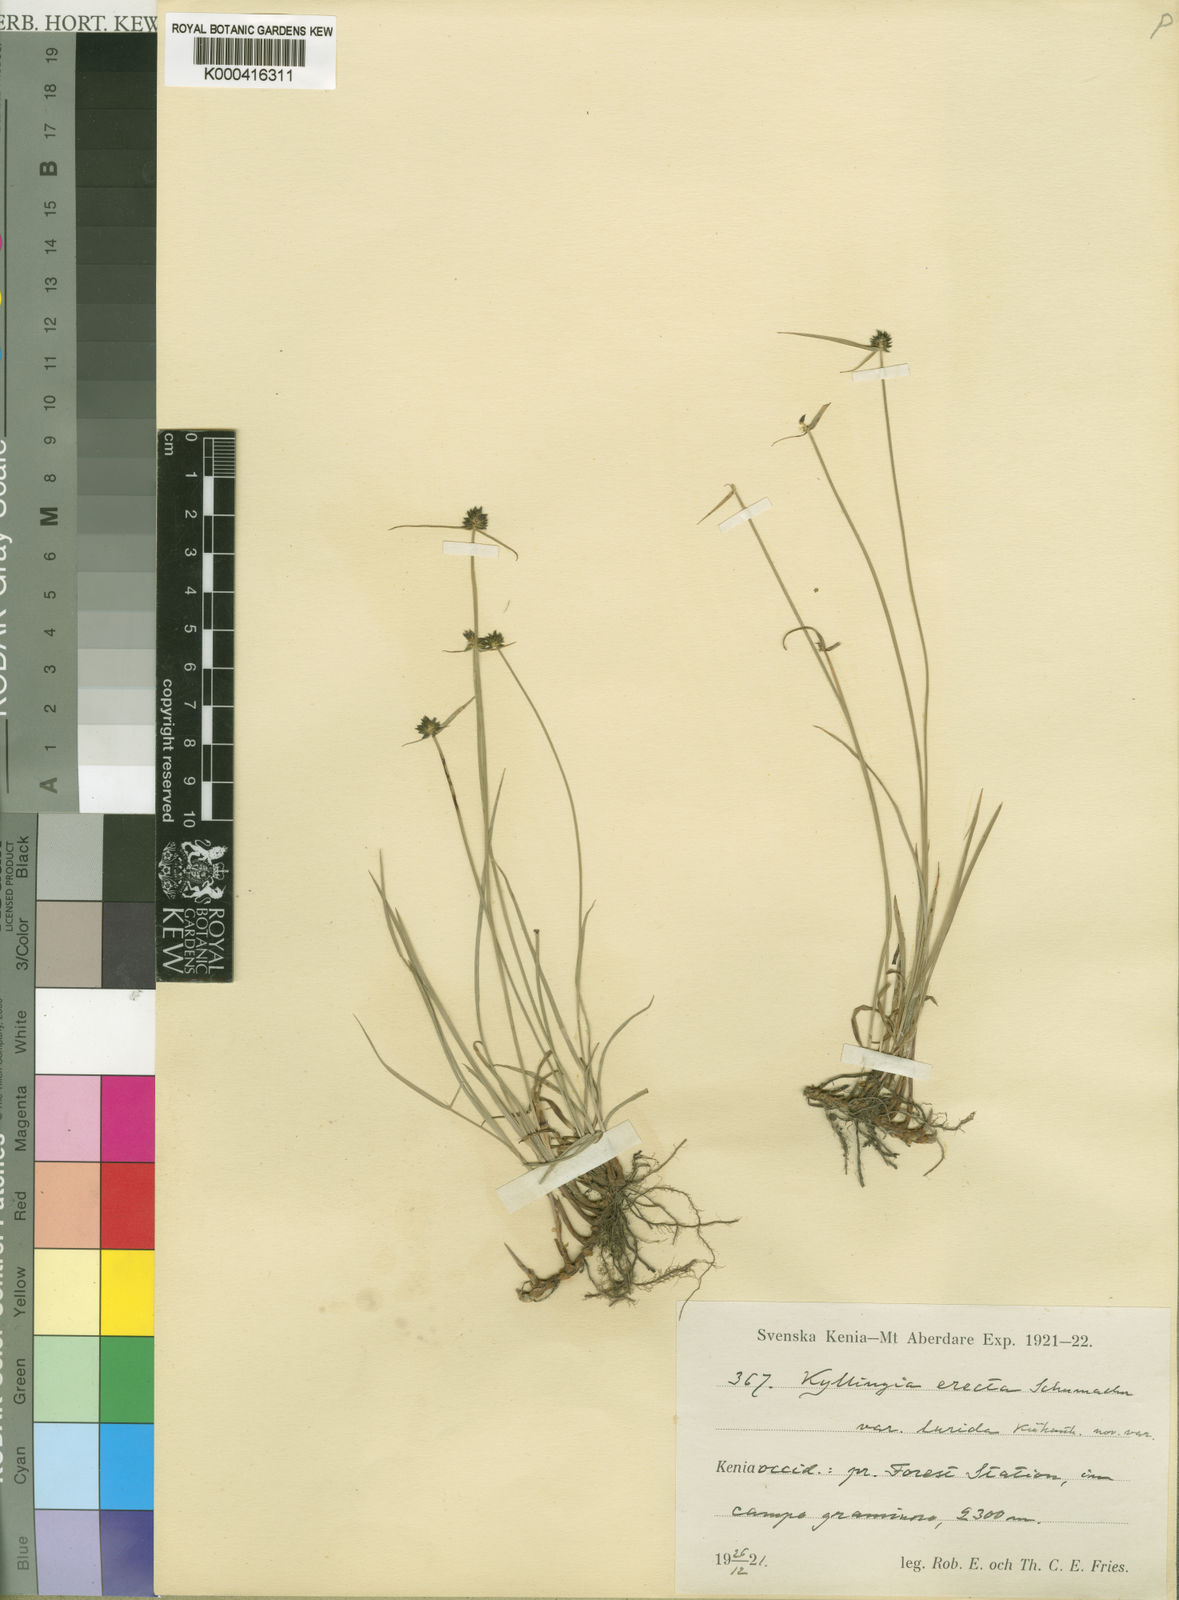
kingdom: Plantae
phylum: Tracheophyta
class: Liliopsida
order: Poales
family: Cyperaceae
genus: Cyperus
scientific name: Cyperus erectus
